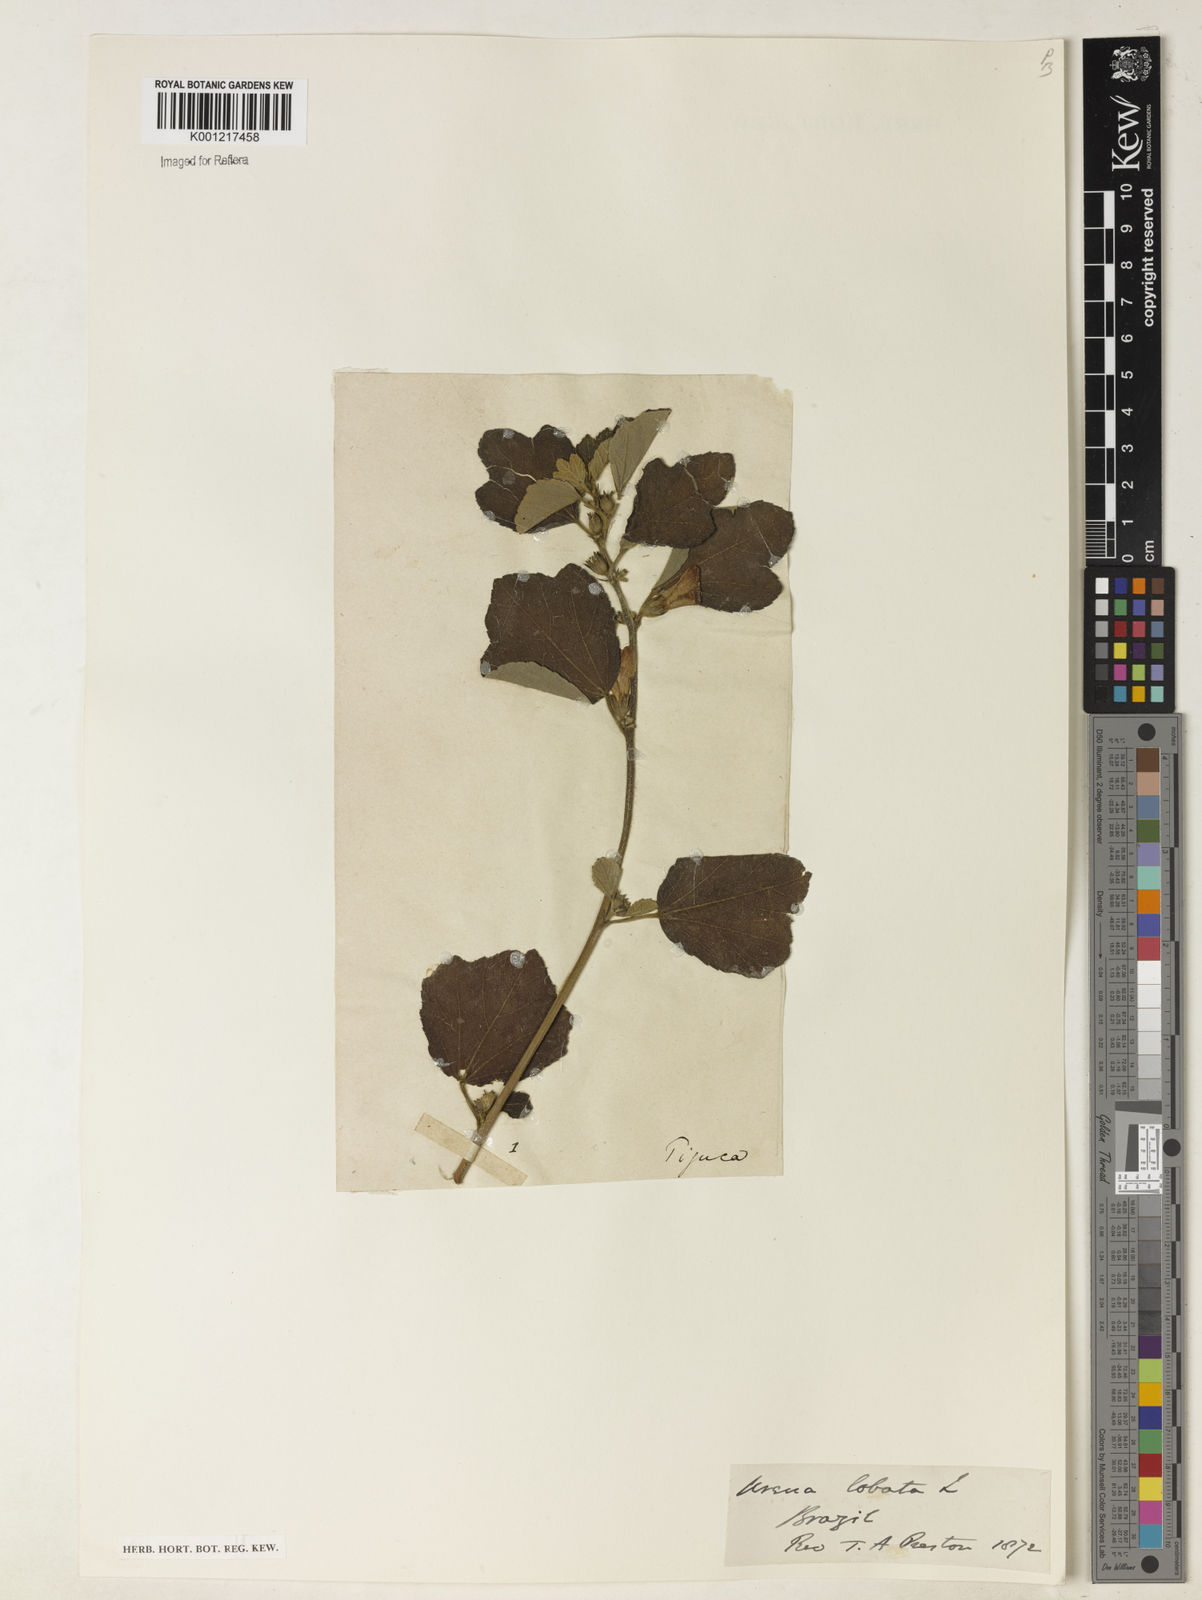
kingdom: Plantae
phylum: Tracheophyta
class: Magnoliopsida
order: Malvales
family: Malvaceae
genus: Urena
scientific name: Urena lobata
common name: Caesarweed
